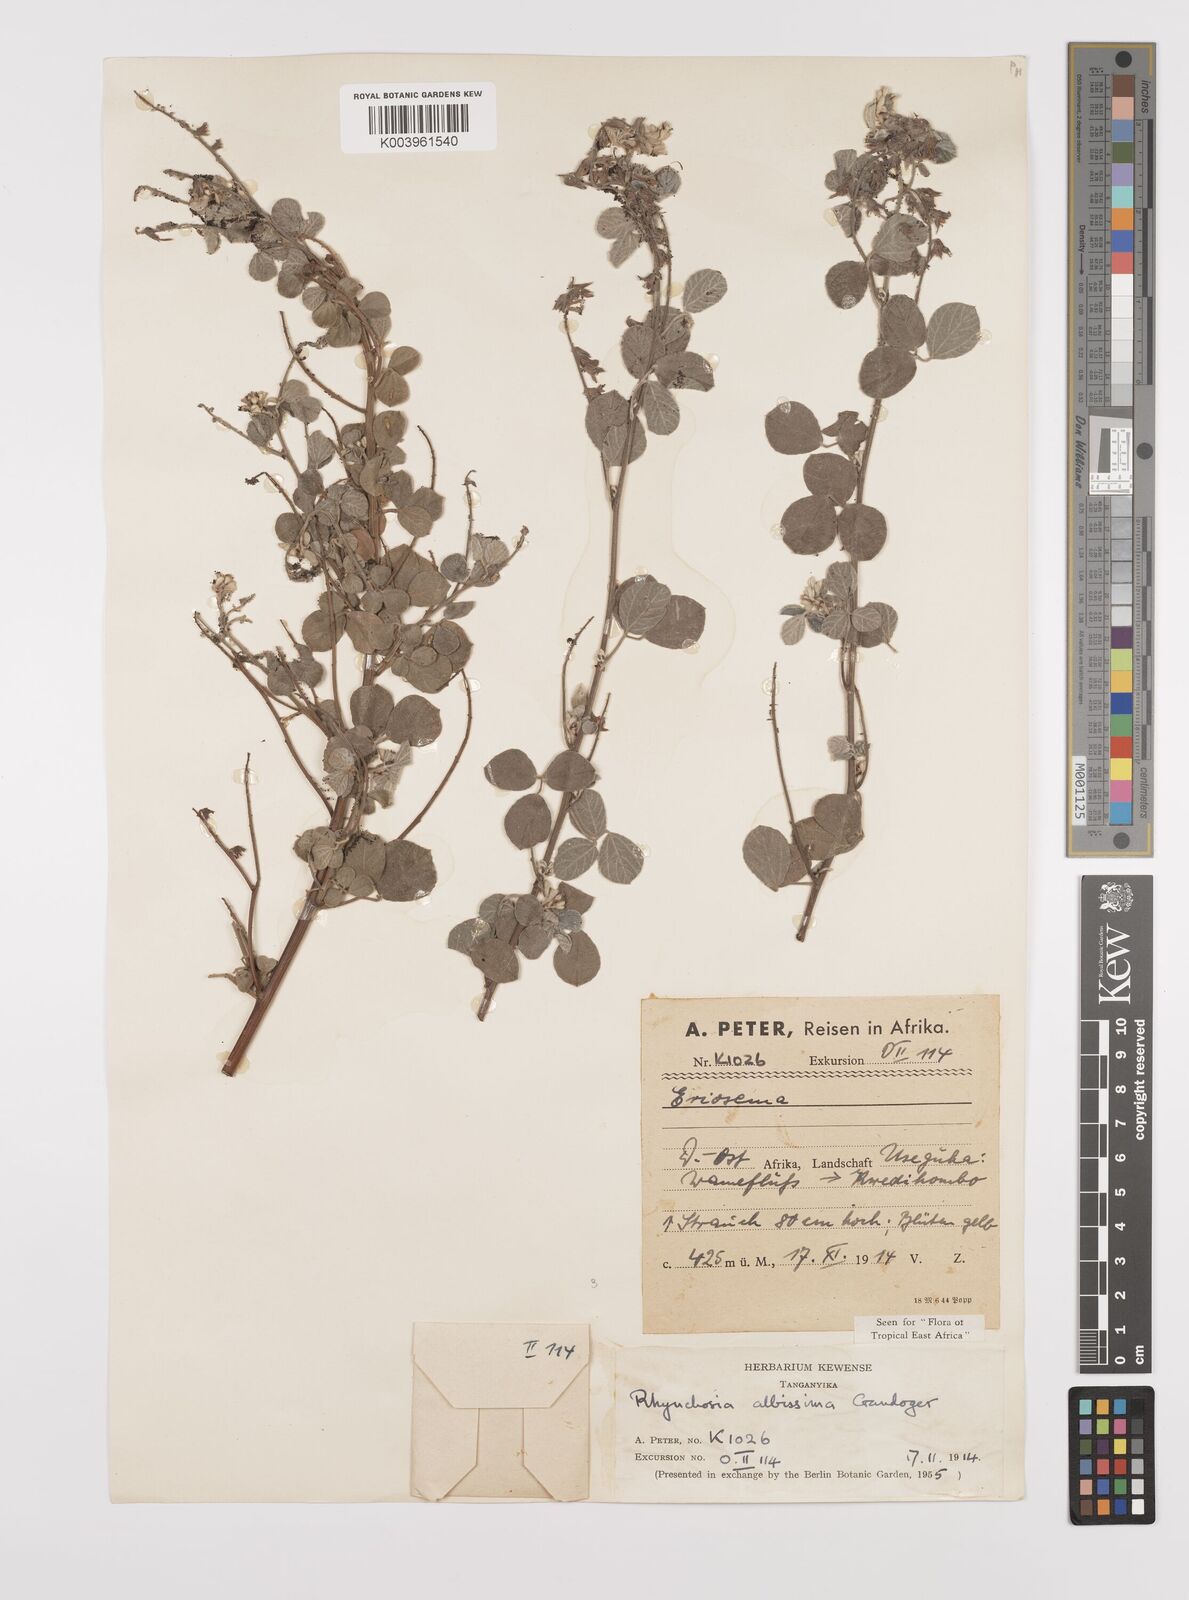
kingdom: Plantae
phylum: Tracheophyta
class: Magnoliopsida
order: Fabales
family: Fabaceae
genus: Rhynchosia
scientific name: Rhynchosia albissima
